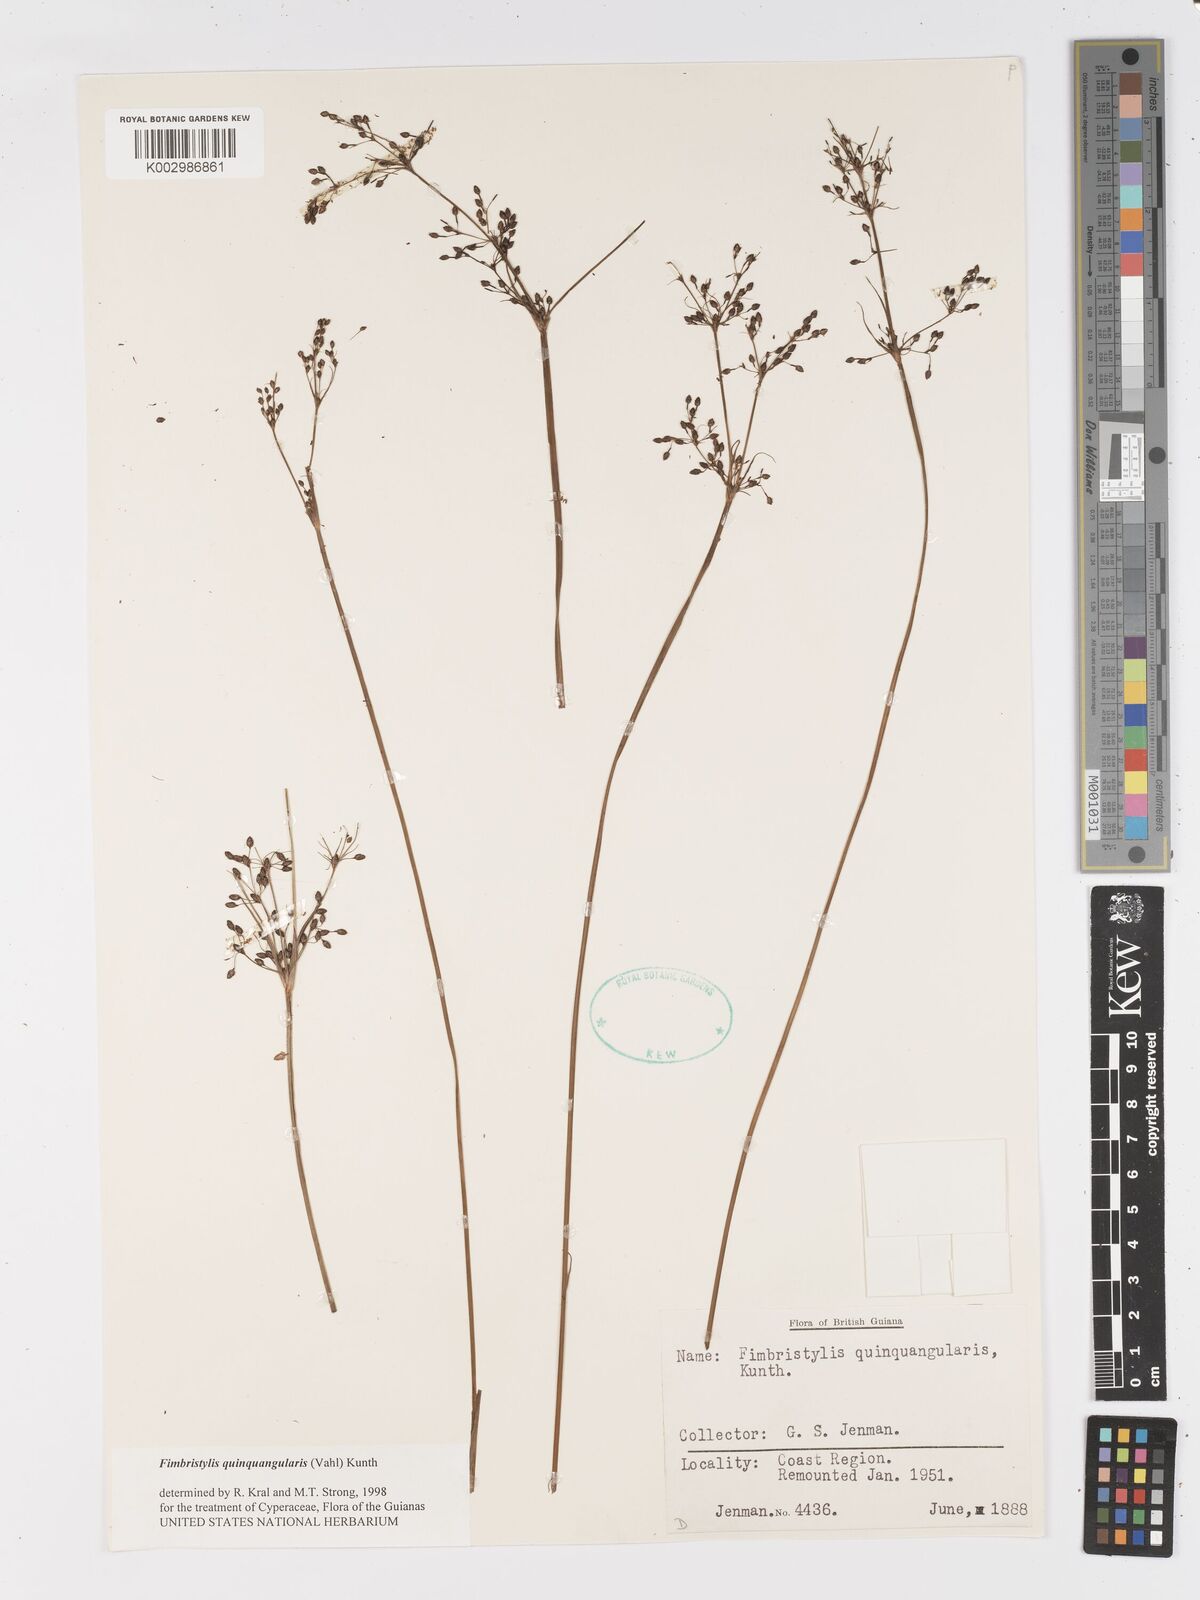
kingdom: Plantae
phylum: Tracheophyta
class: Liliopsida
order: Poales
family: Cyperaceae
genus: Fimbristylis
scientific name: Fimbristylis quinquangularis
